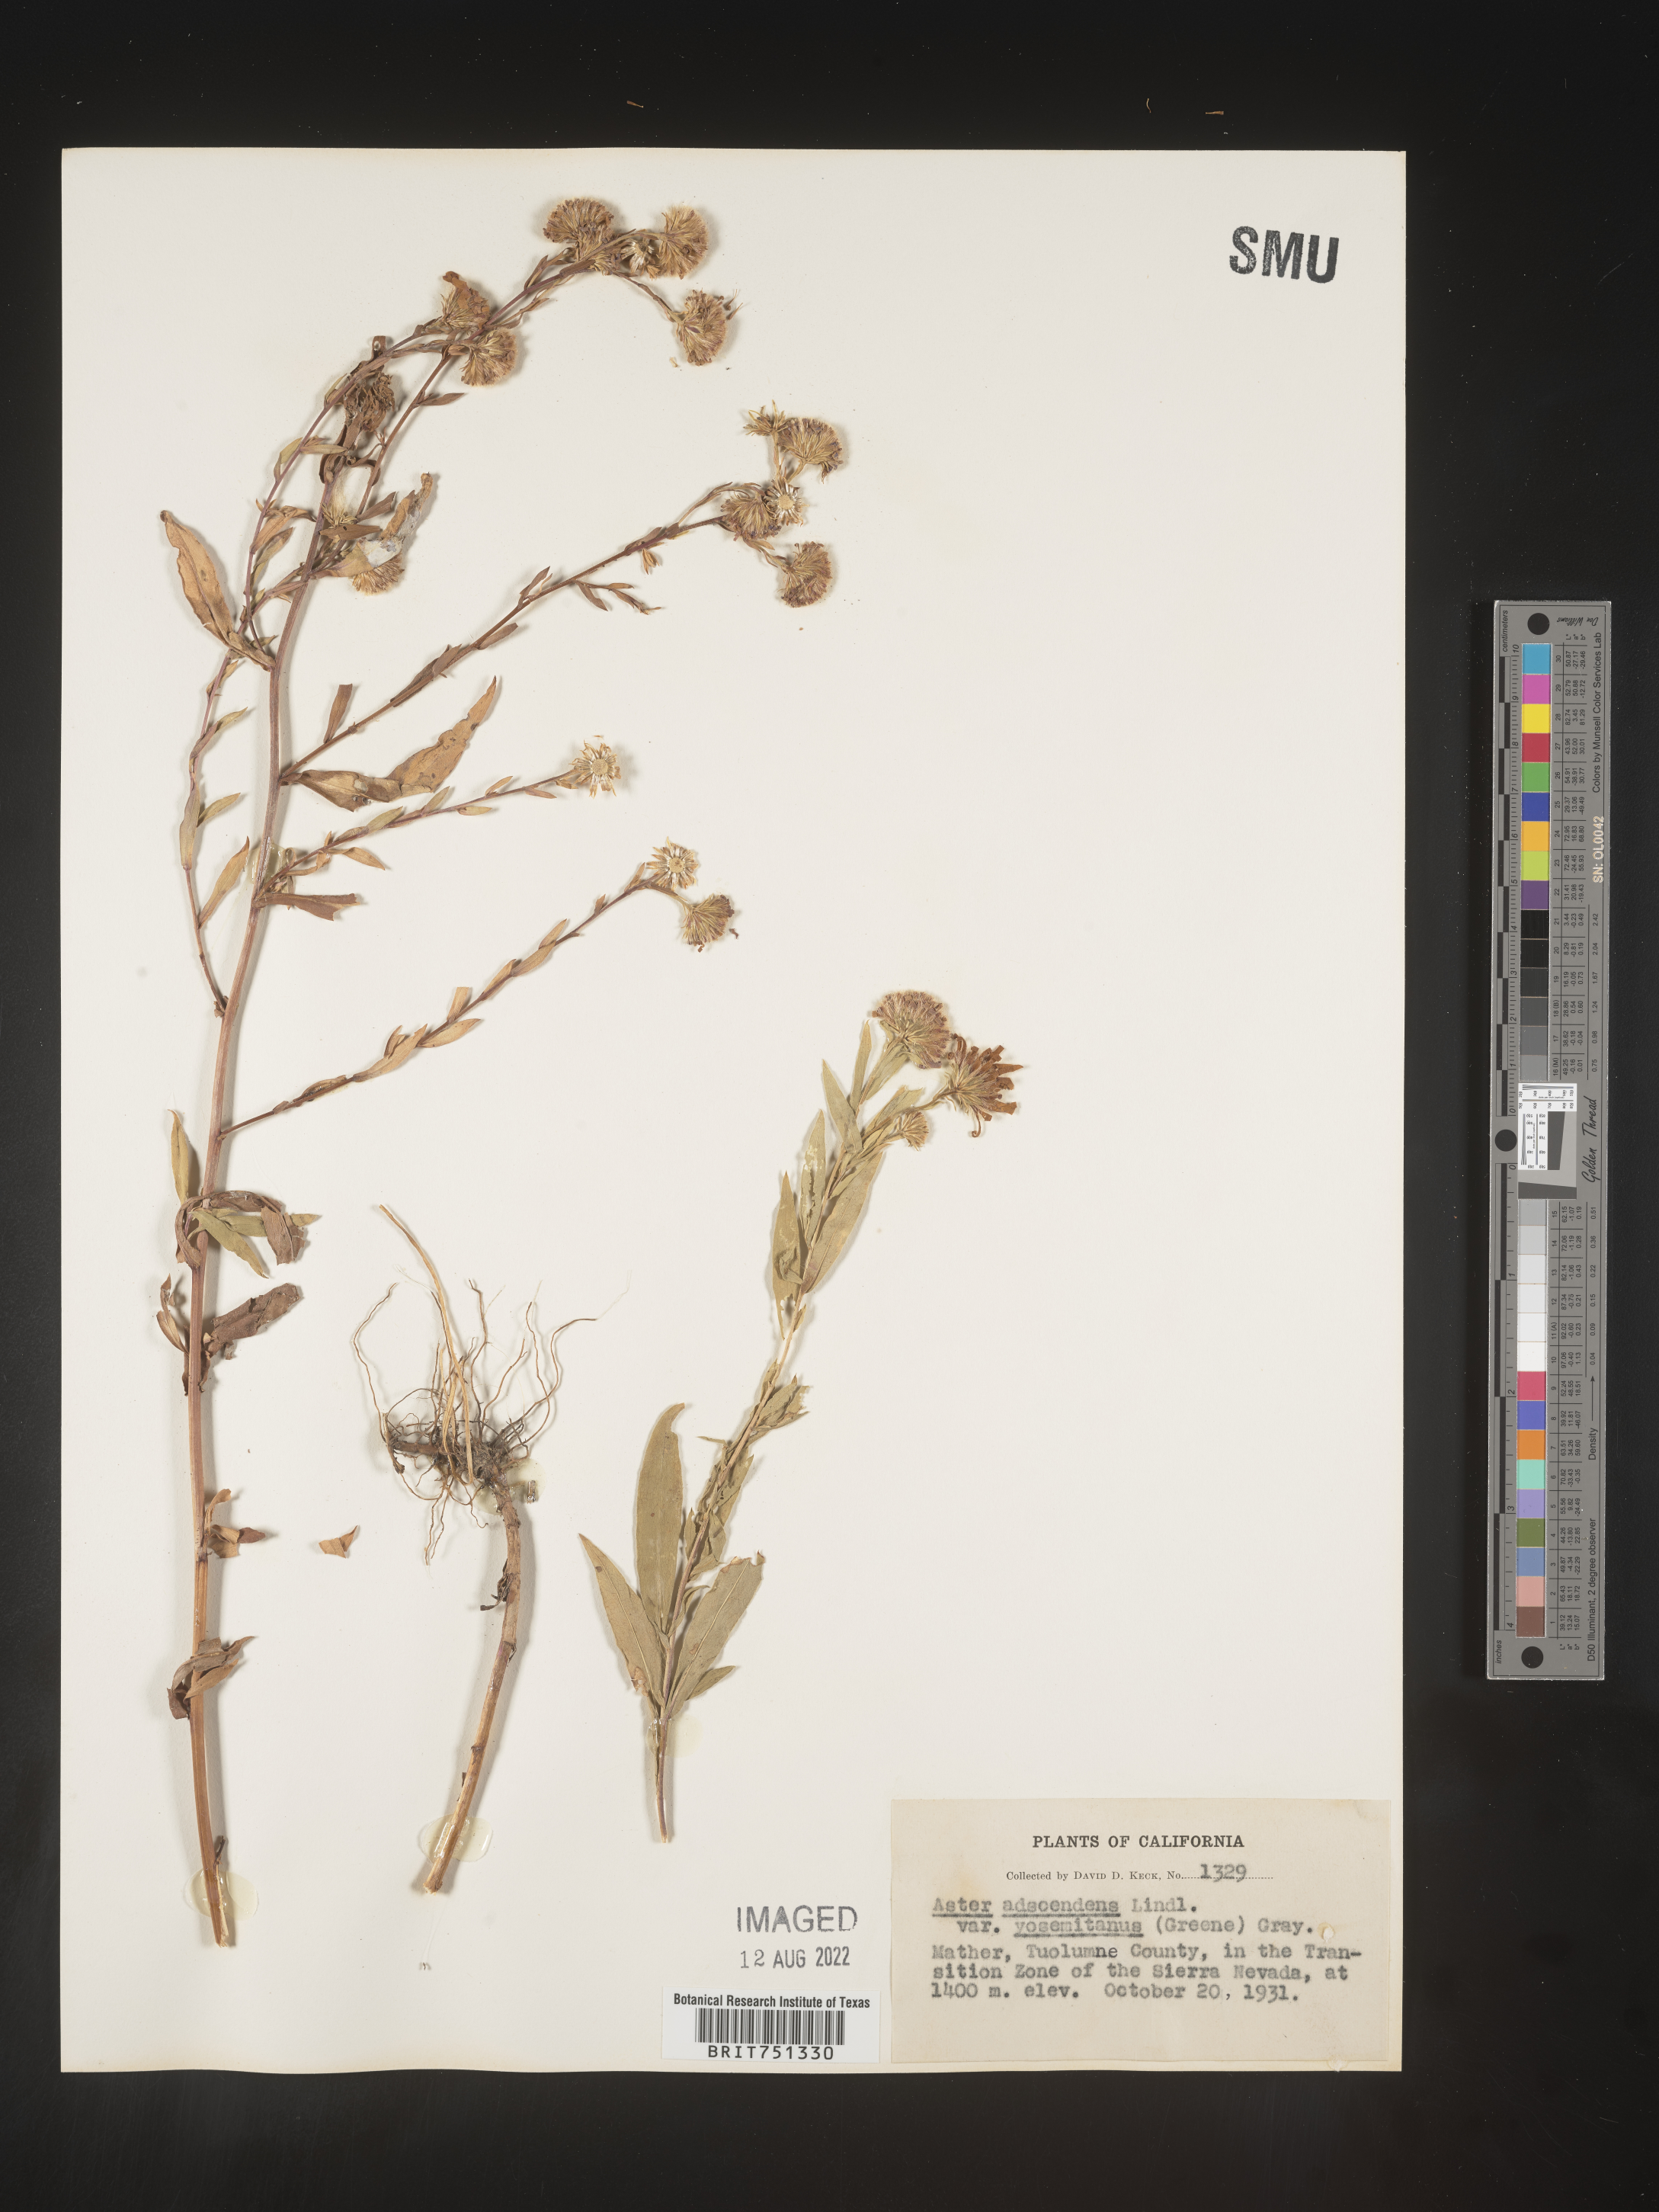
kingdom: Plantae
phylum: Tracheophyta
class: Magnoliopsida
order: Asterales
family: Asteraceae
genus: Symphyotrichum
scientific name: Symphyotrichum spathulatum
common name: Western mountain aster
